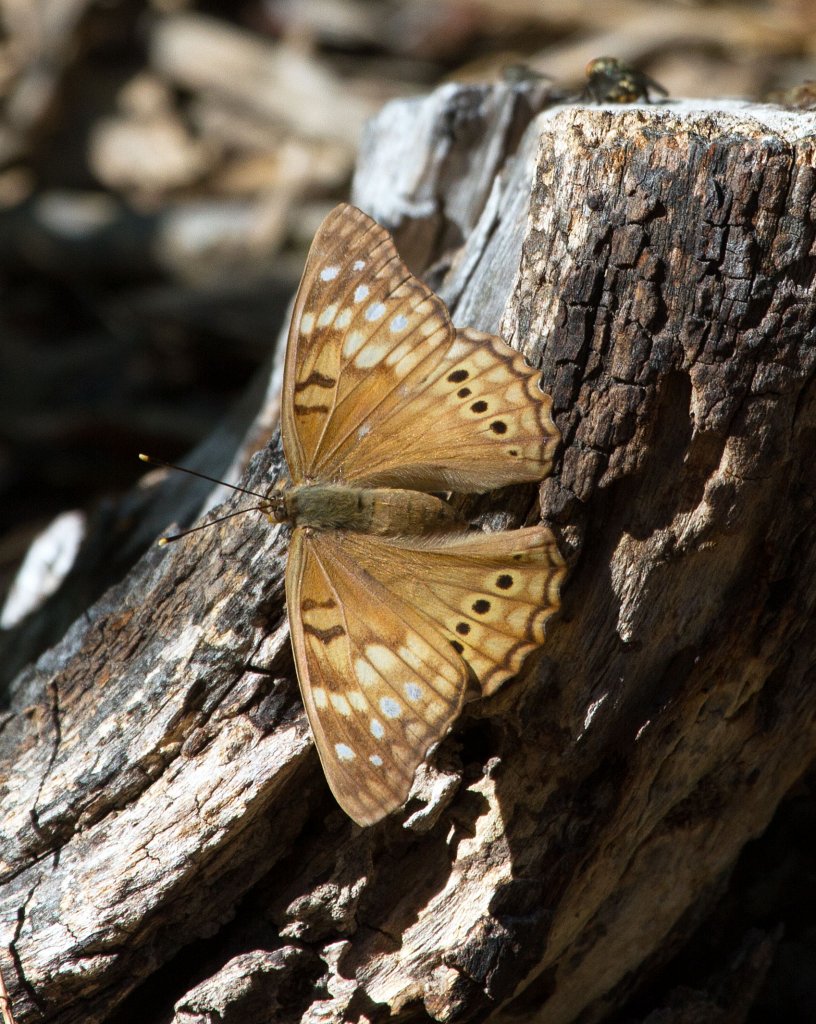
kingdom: Animalia
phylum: Arthropoda
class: Insecta
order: Lepidoptera
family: Nymphalidae
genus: Asterocampa
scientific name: Asterocampa clyton
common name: Tawny Emperor
